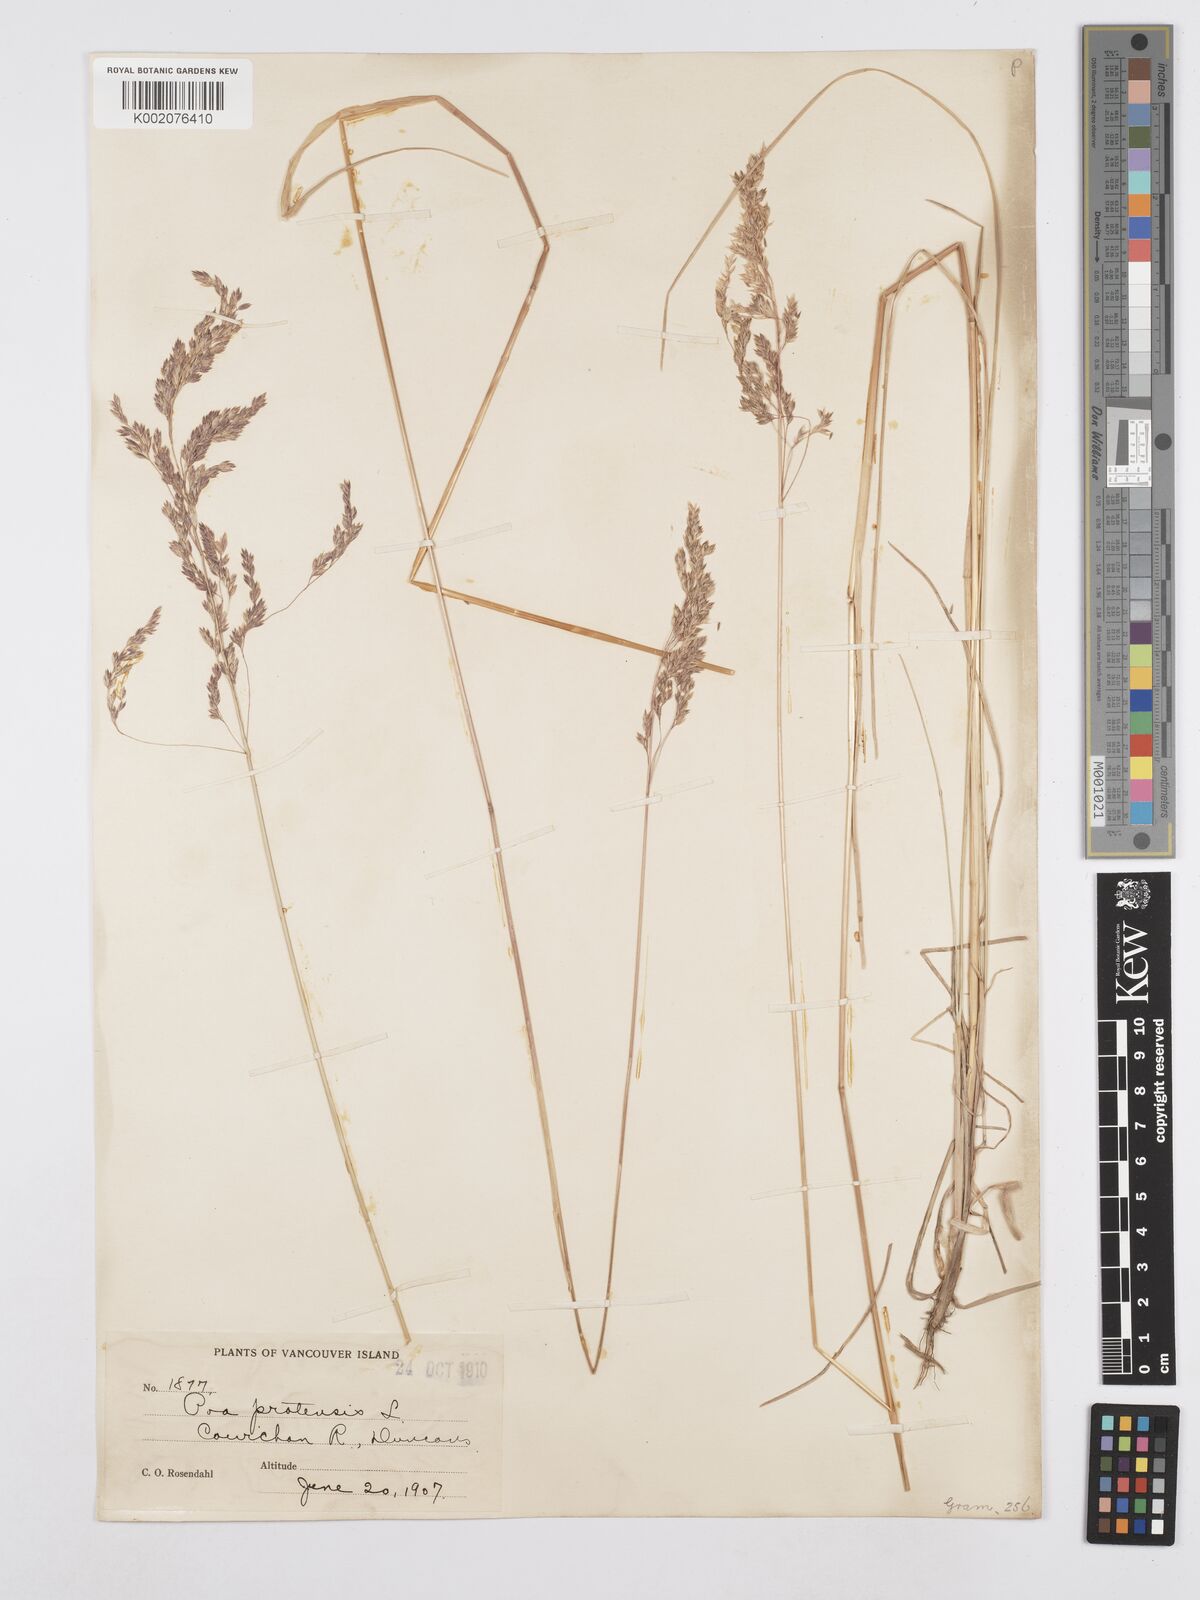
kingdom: Plantae
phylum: Tracheophyta
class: Liliopsida
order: Poales
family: Poaceae
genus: Poa
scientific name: Poa angustifolia
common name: Narrow-leaved meadow-grass
